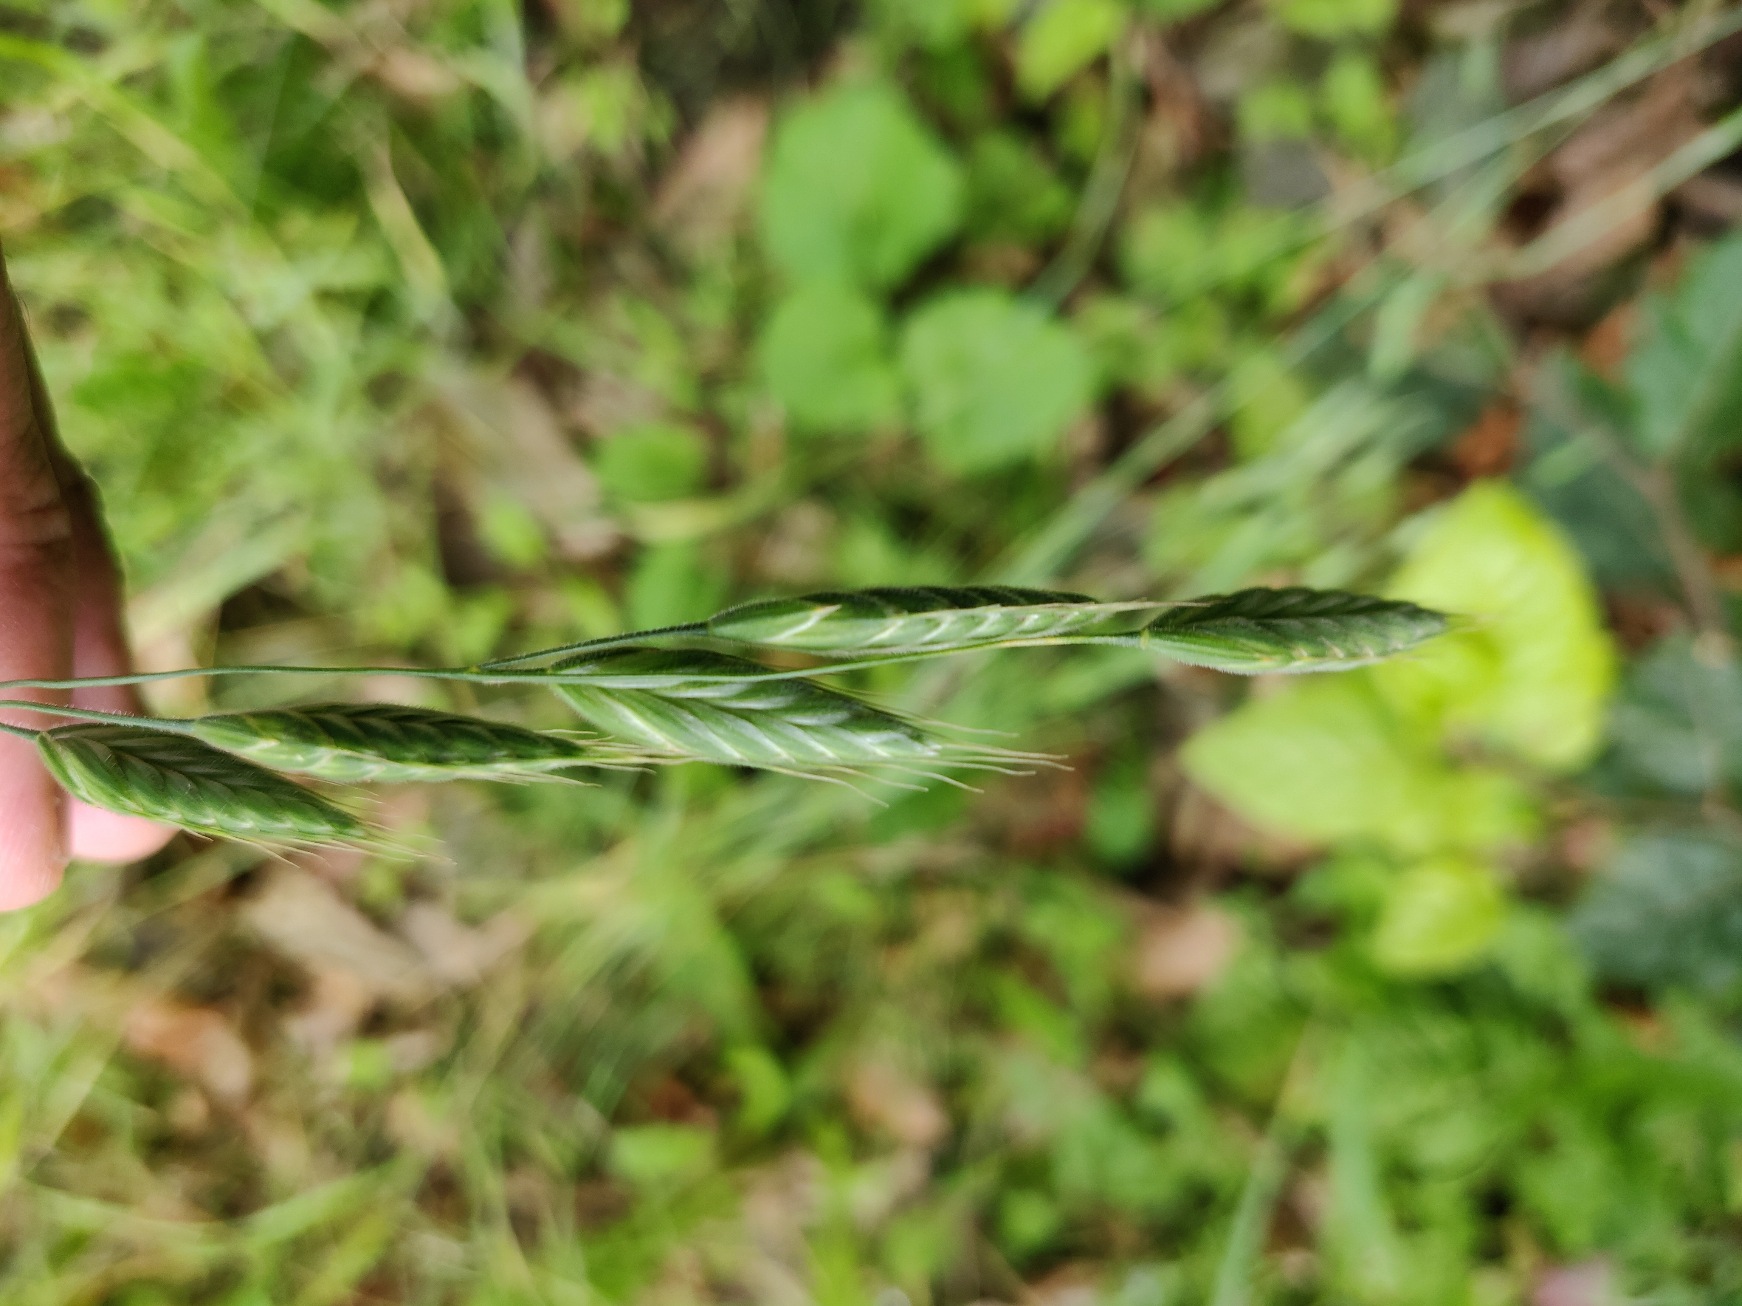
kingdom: Plantae
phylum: Tracheophyta
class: Liliopsida
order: Poales
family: Poaceae
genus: Bromus
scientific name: Bromus hordeaceus
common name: Blød hejre
